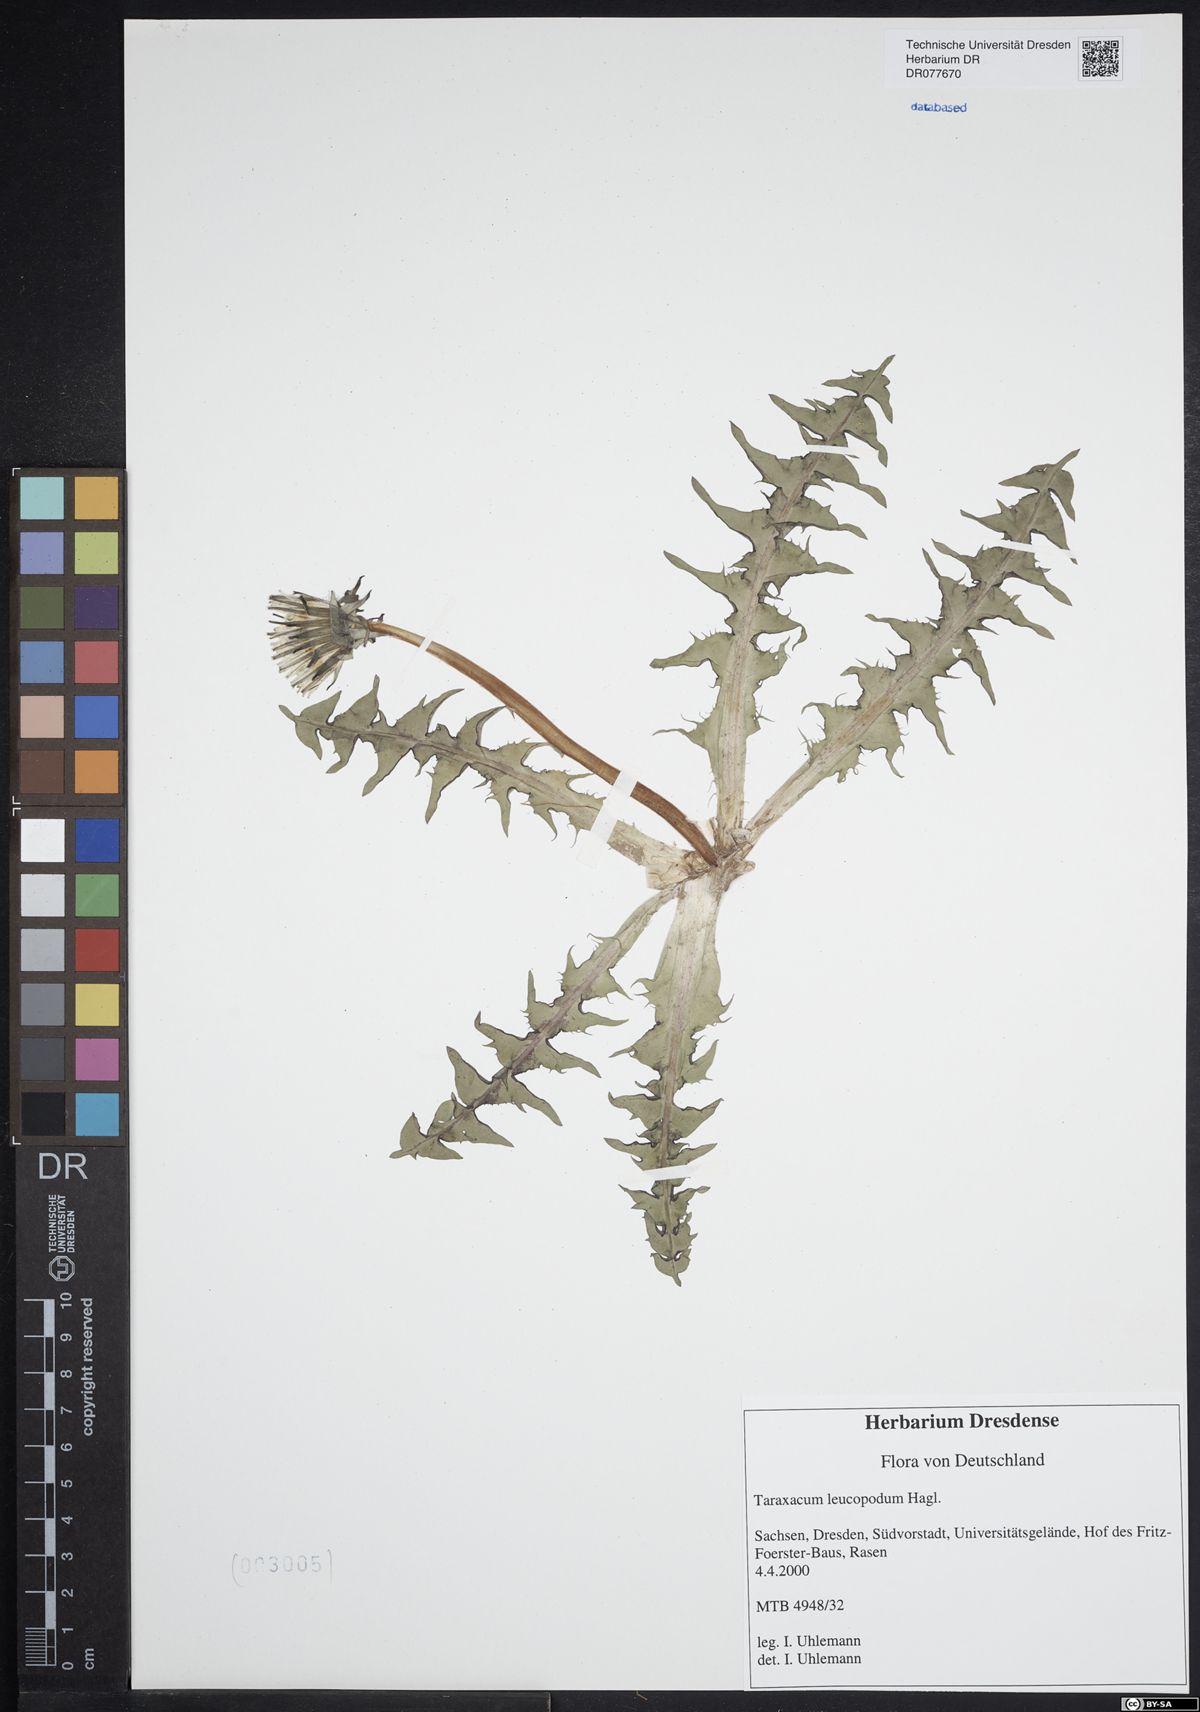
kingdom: Plantae
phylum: Tracheophyta
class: Magnoliopsida
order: Asterales
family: Asteraceae
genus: Taraxacum
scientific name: Taraxacum leucopodum
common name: White-stalked dandelion
